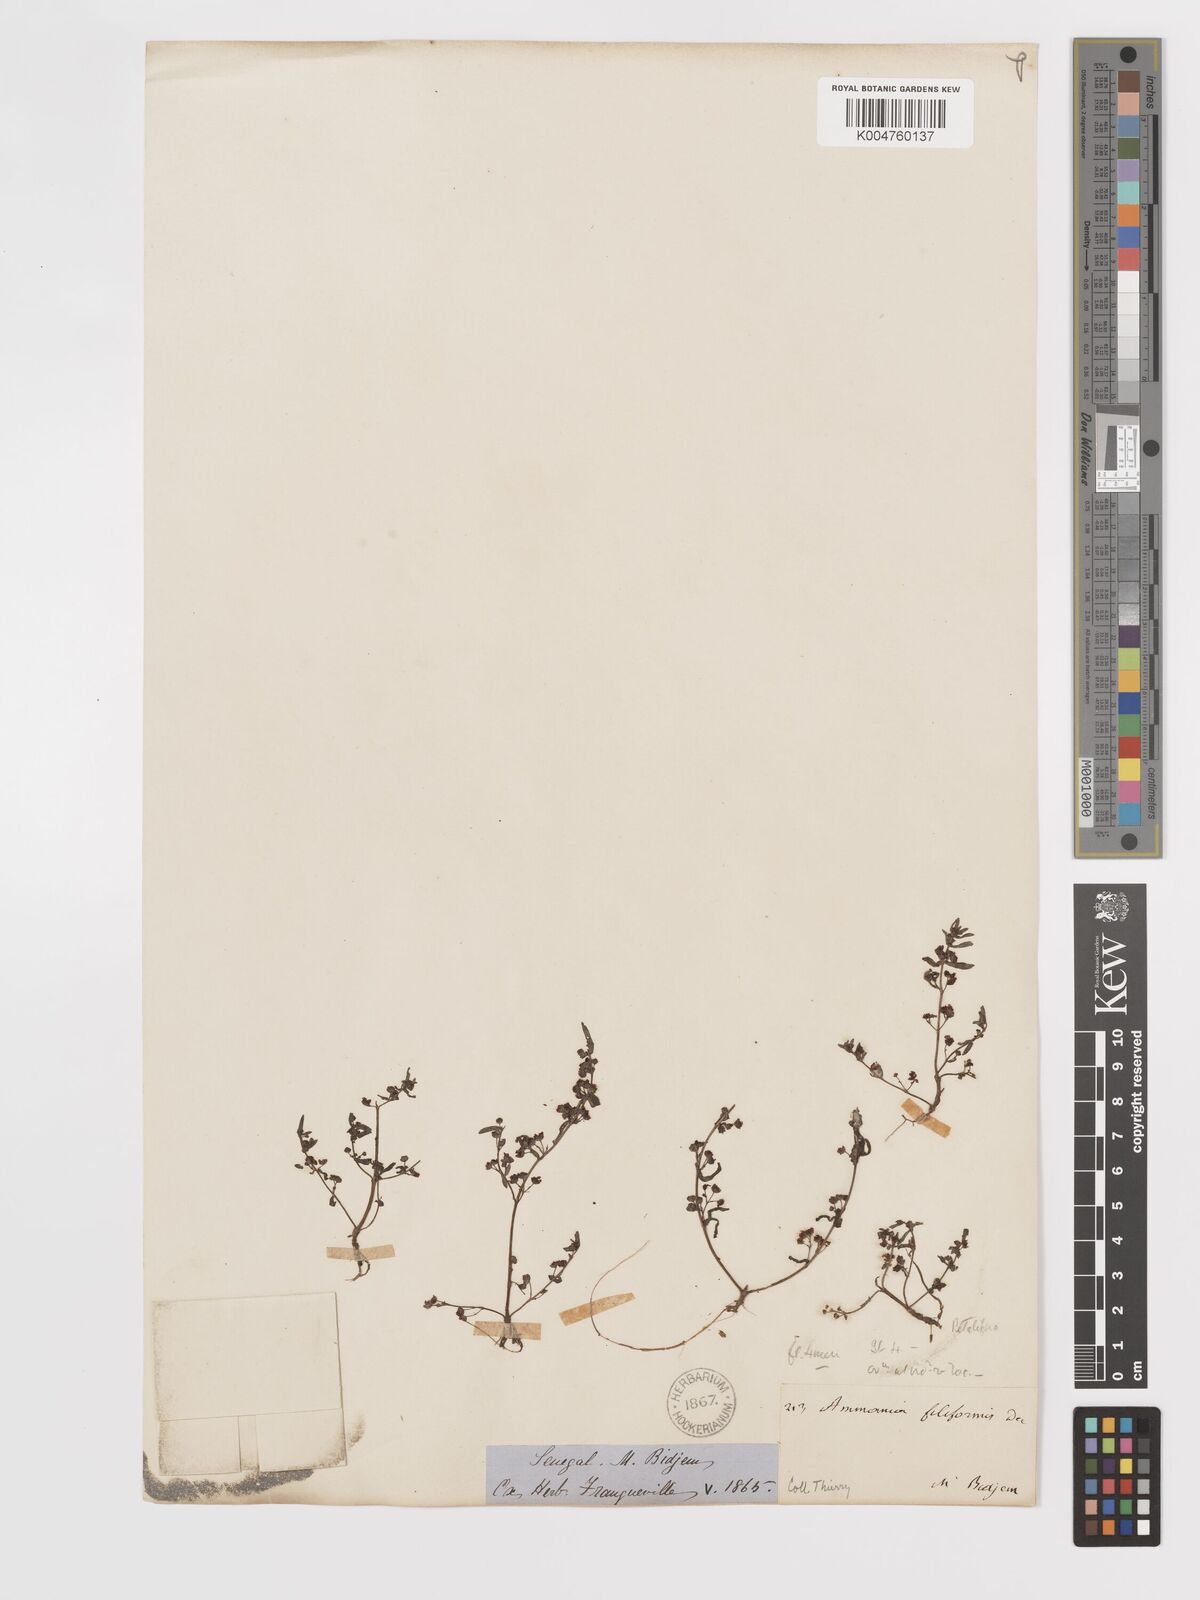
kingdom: Plantae
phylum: Tracheophyta
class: Magnoliopsida
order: Myrtales
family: Lythraceae
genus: Ammannia
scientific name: Ammannia senegalensis
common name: Red ammannia
